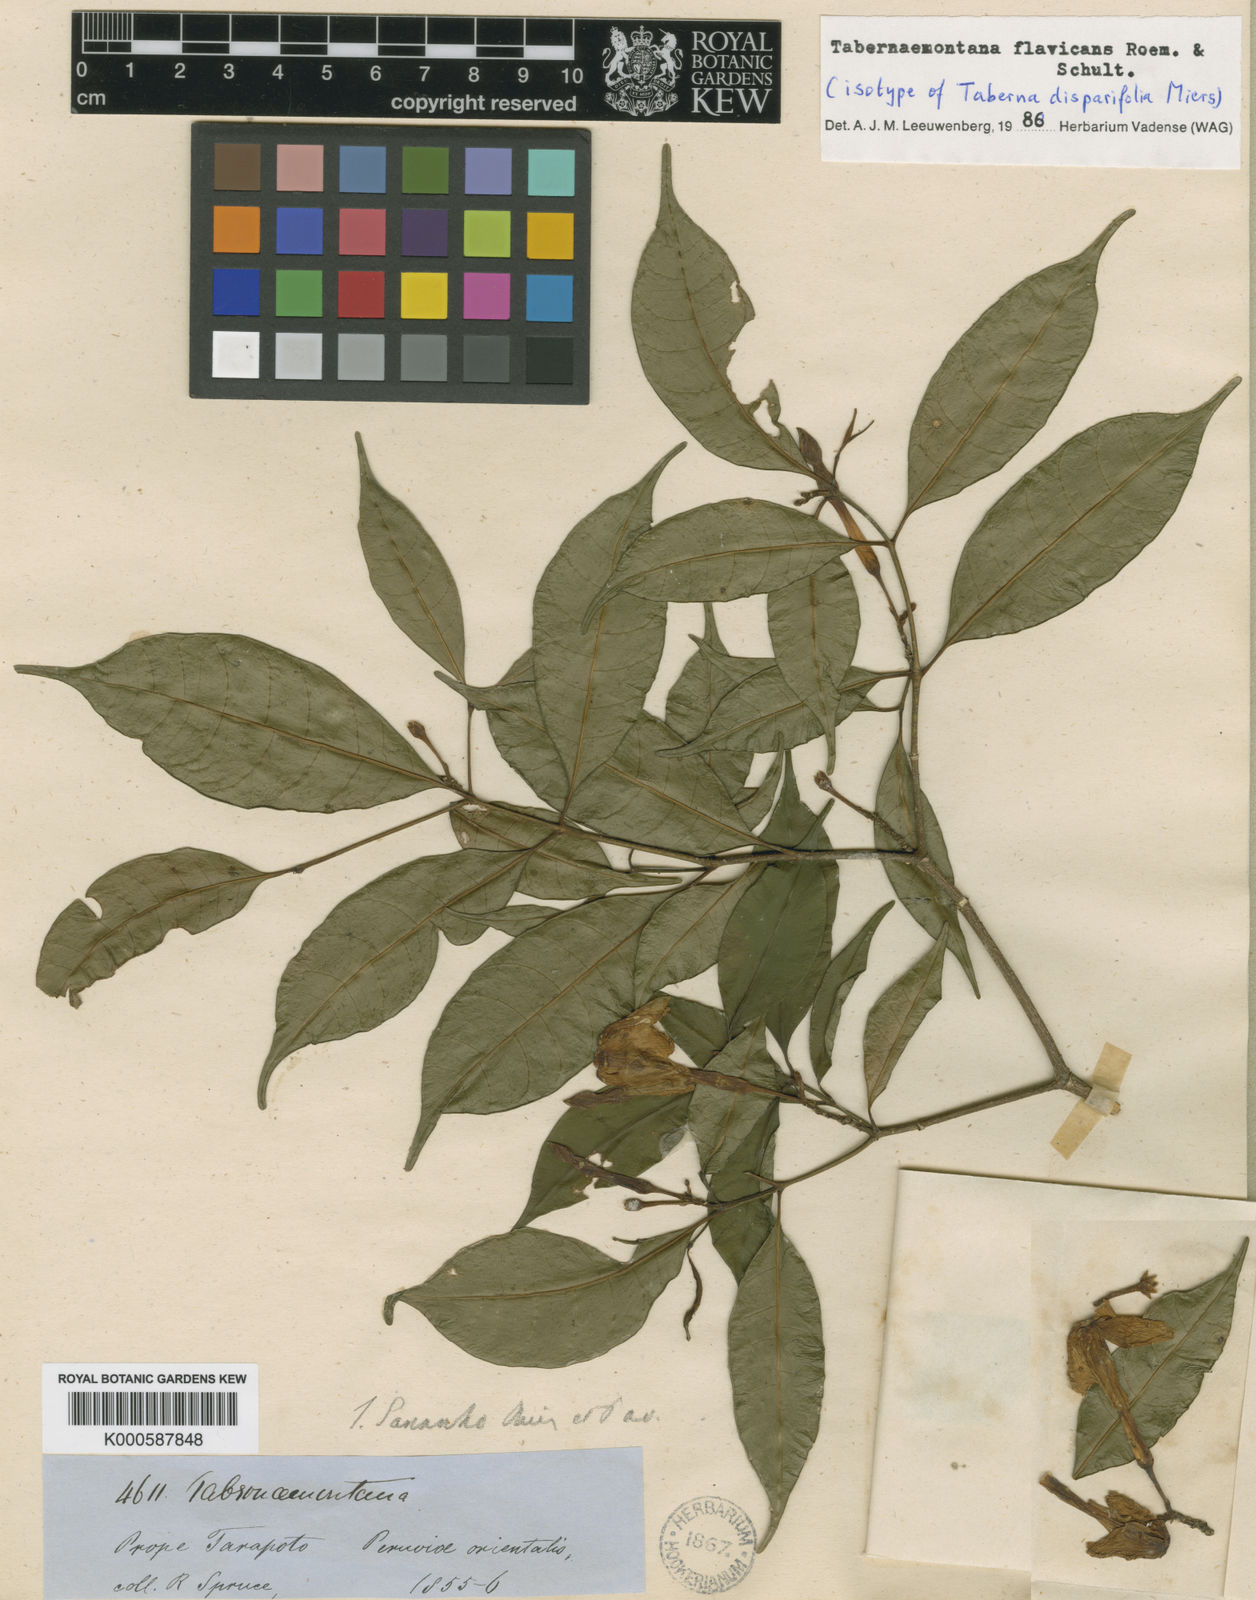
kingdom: Plantae
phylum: Tracheophyta
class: Magnoliopsida
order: Gentianales
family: Apocynaceae
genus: Tabernaemontana
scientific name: Tabernaemontana flavicans
